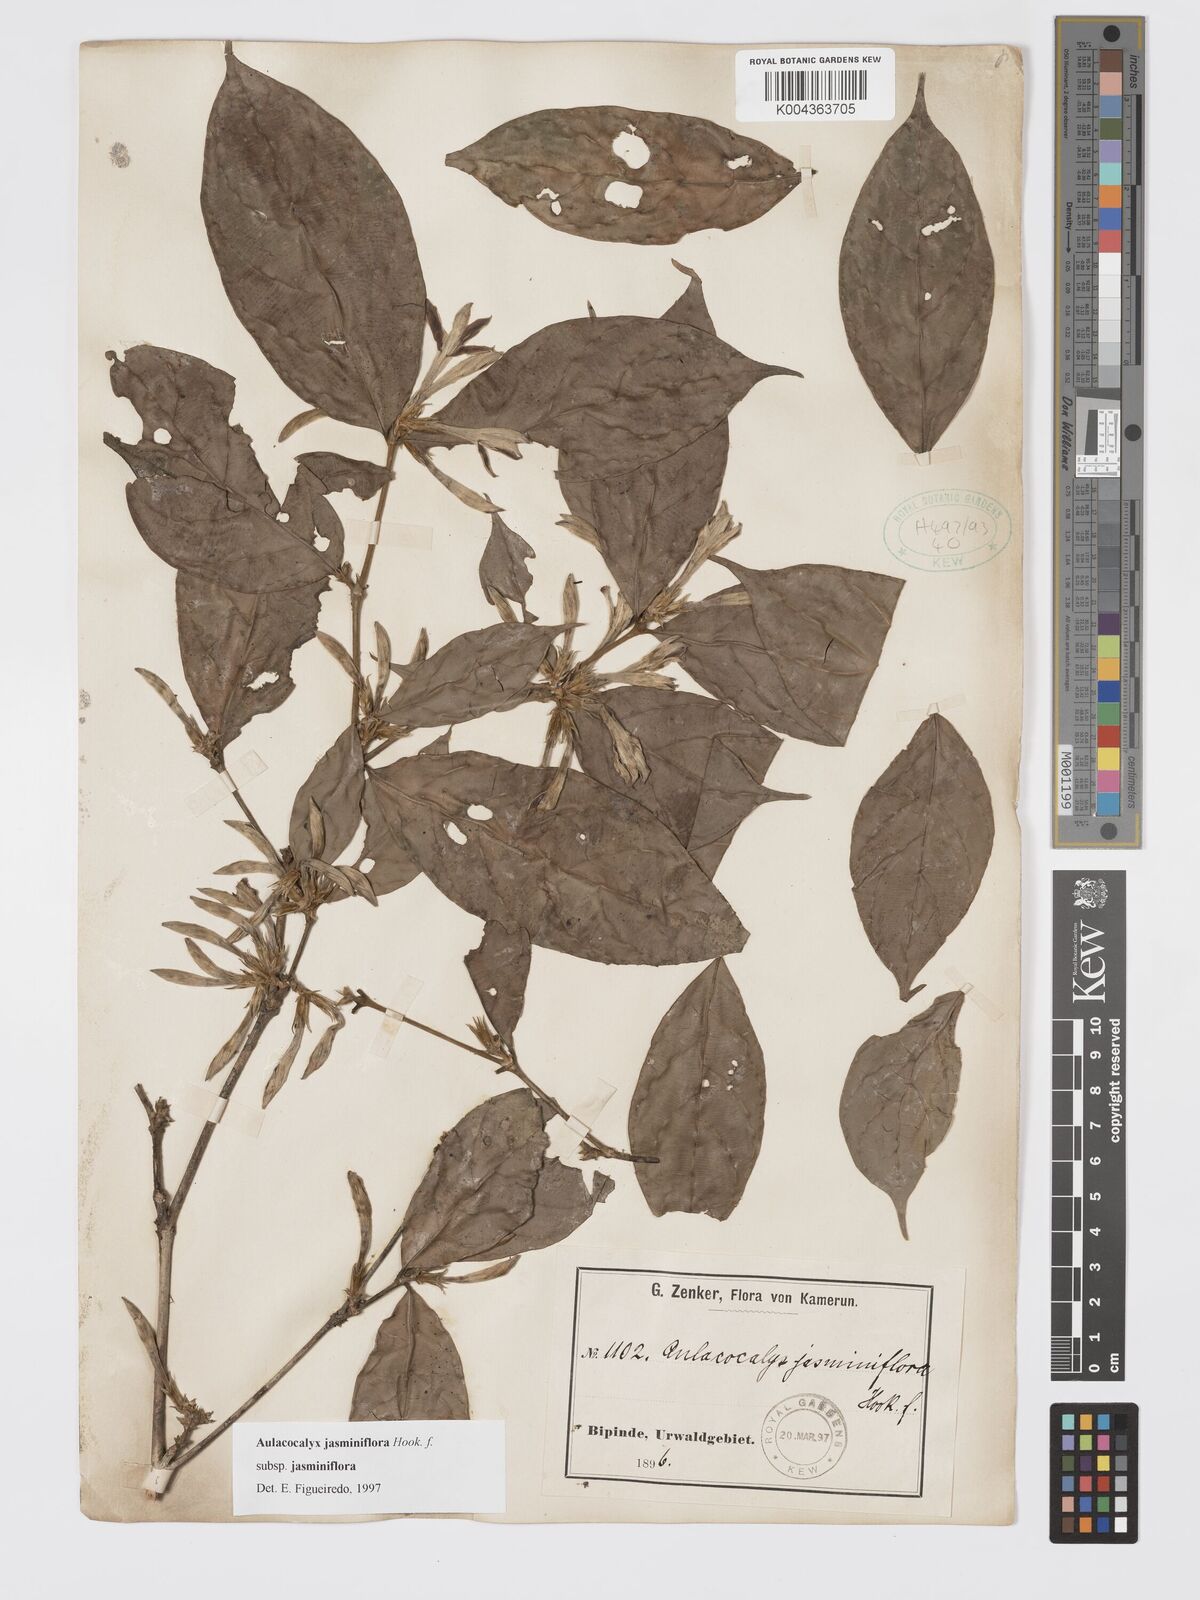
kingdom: Plantae
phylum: Tracheophyta
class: Magnoliopsida
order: Gentianales
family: Rubiaceae
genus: Aulacocalyx
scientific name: Aulacocalyx jasminiflora
